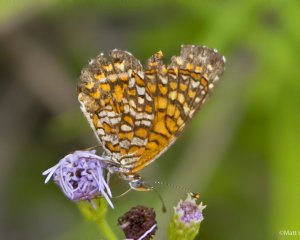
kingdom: Animalia
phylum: Arthropoda
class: Insecta
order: Lepidoptera
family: Nymphalidae
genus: Texola
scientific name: Texola elada
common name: Elada Checkerspot
